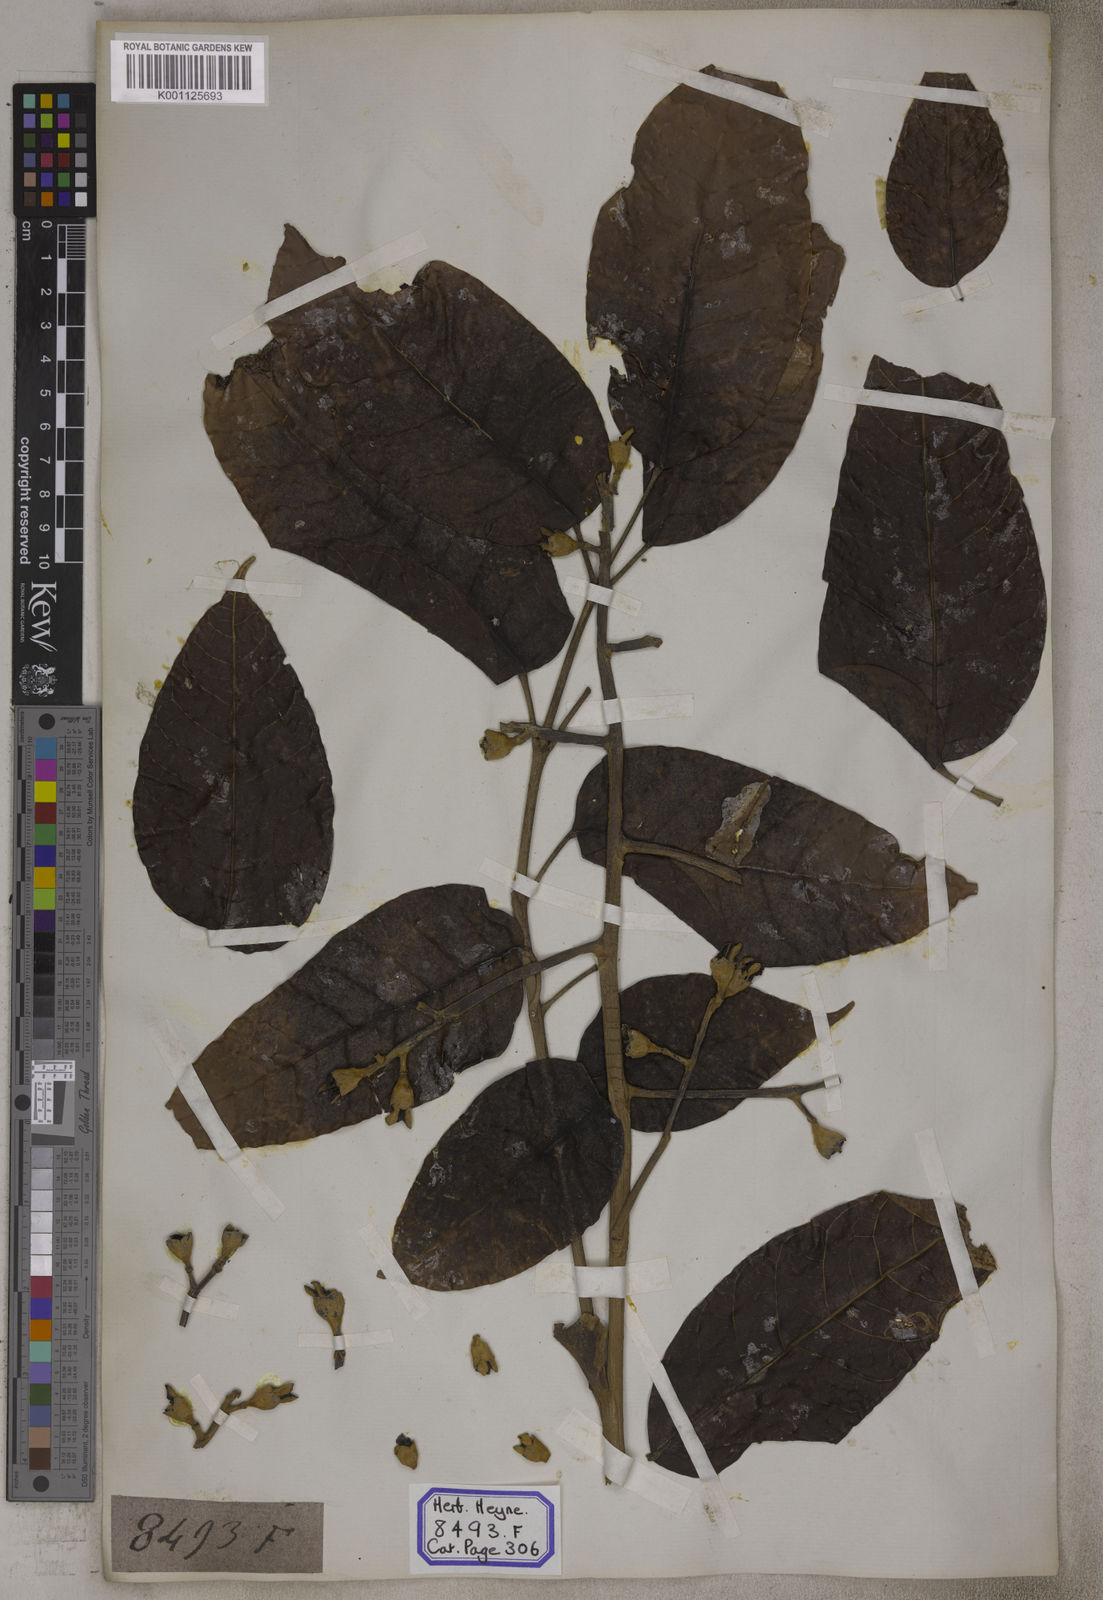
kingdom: Plantae
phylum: Tracheophyta
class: Magnoliopsida
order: Sapindales
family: Burseraceae
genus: Canarium
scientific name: Canarium indicum
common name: Canarium-nut
